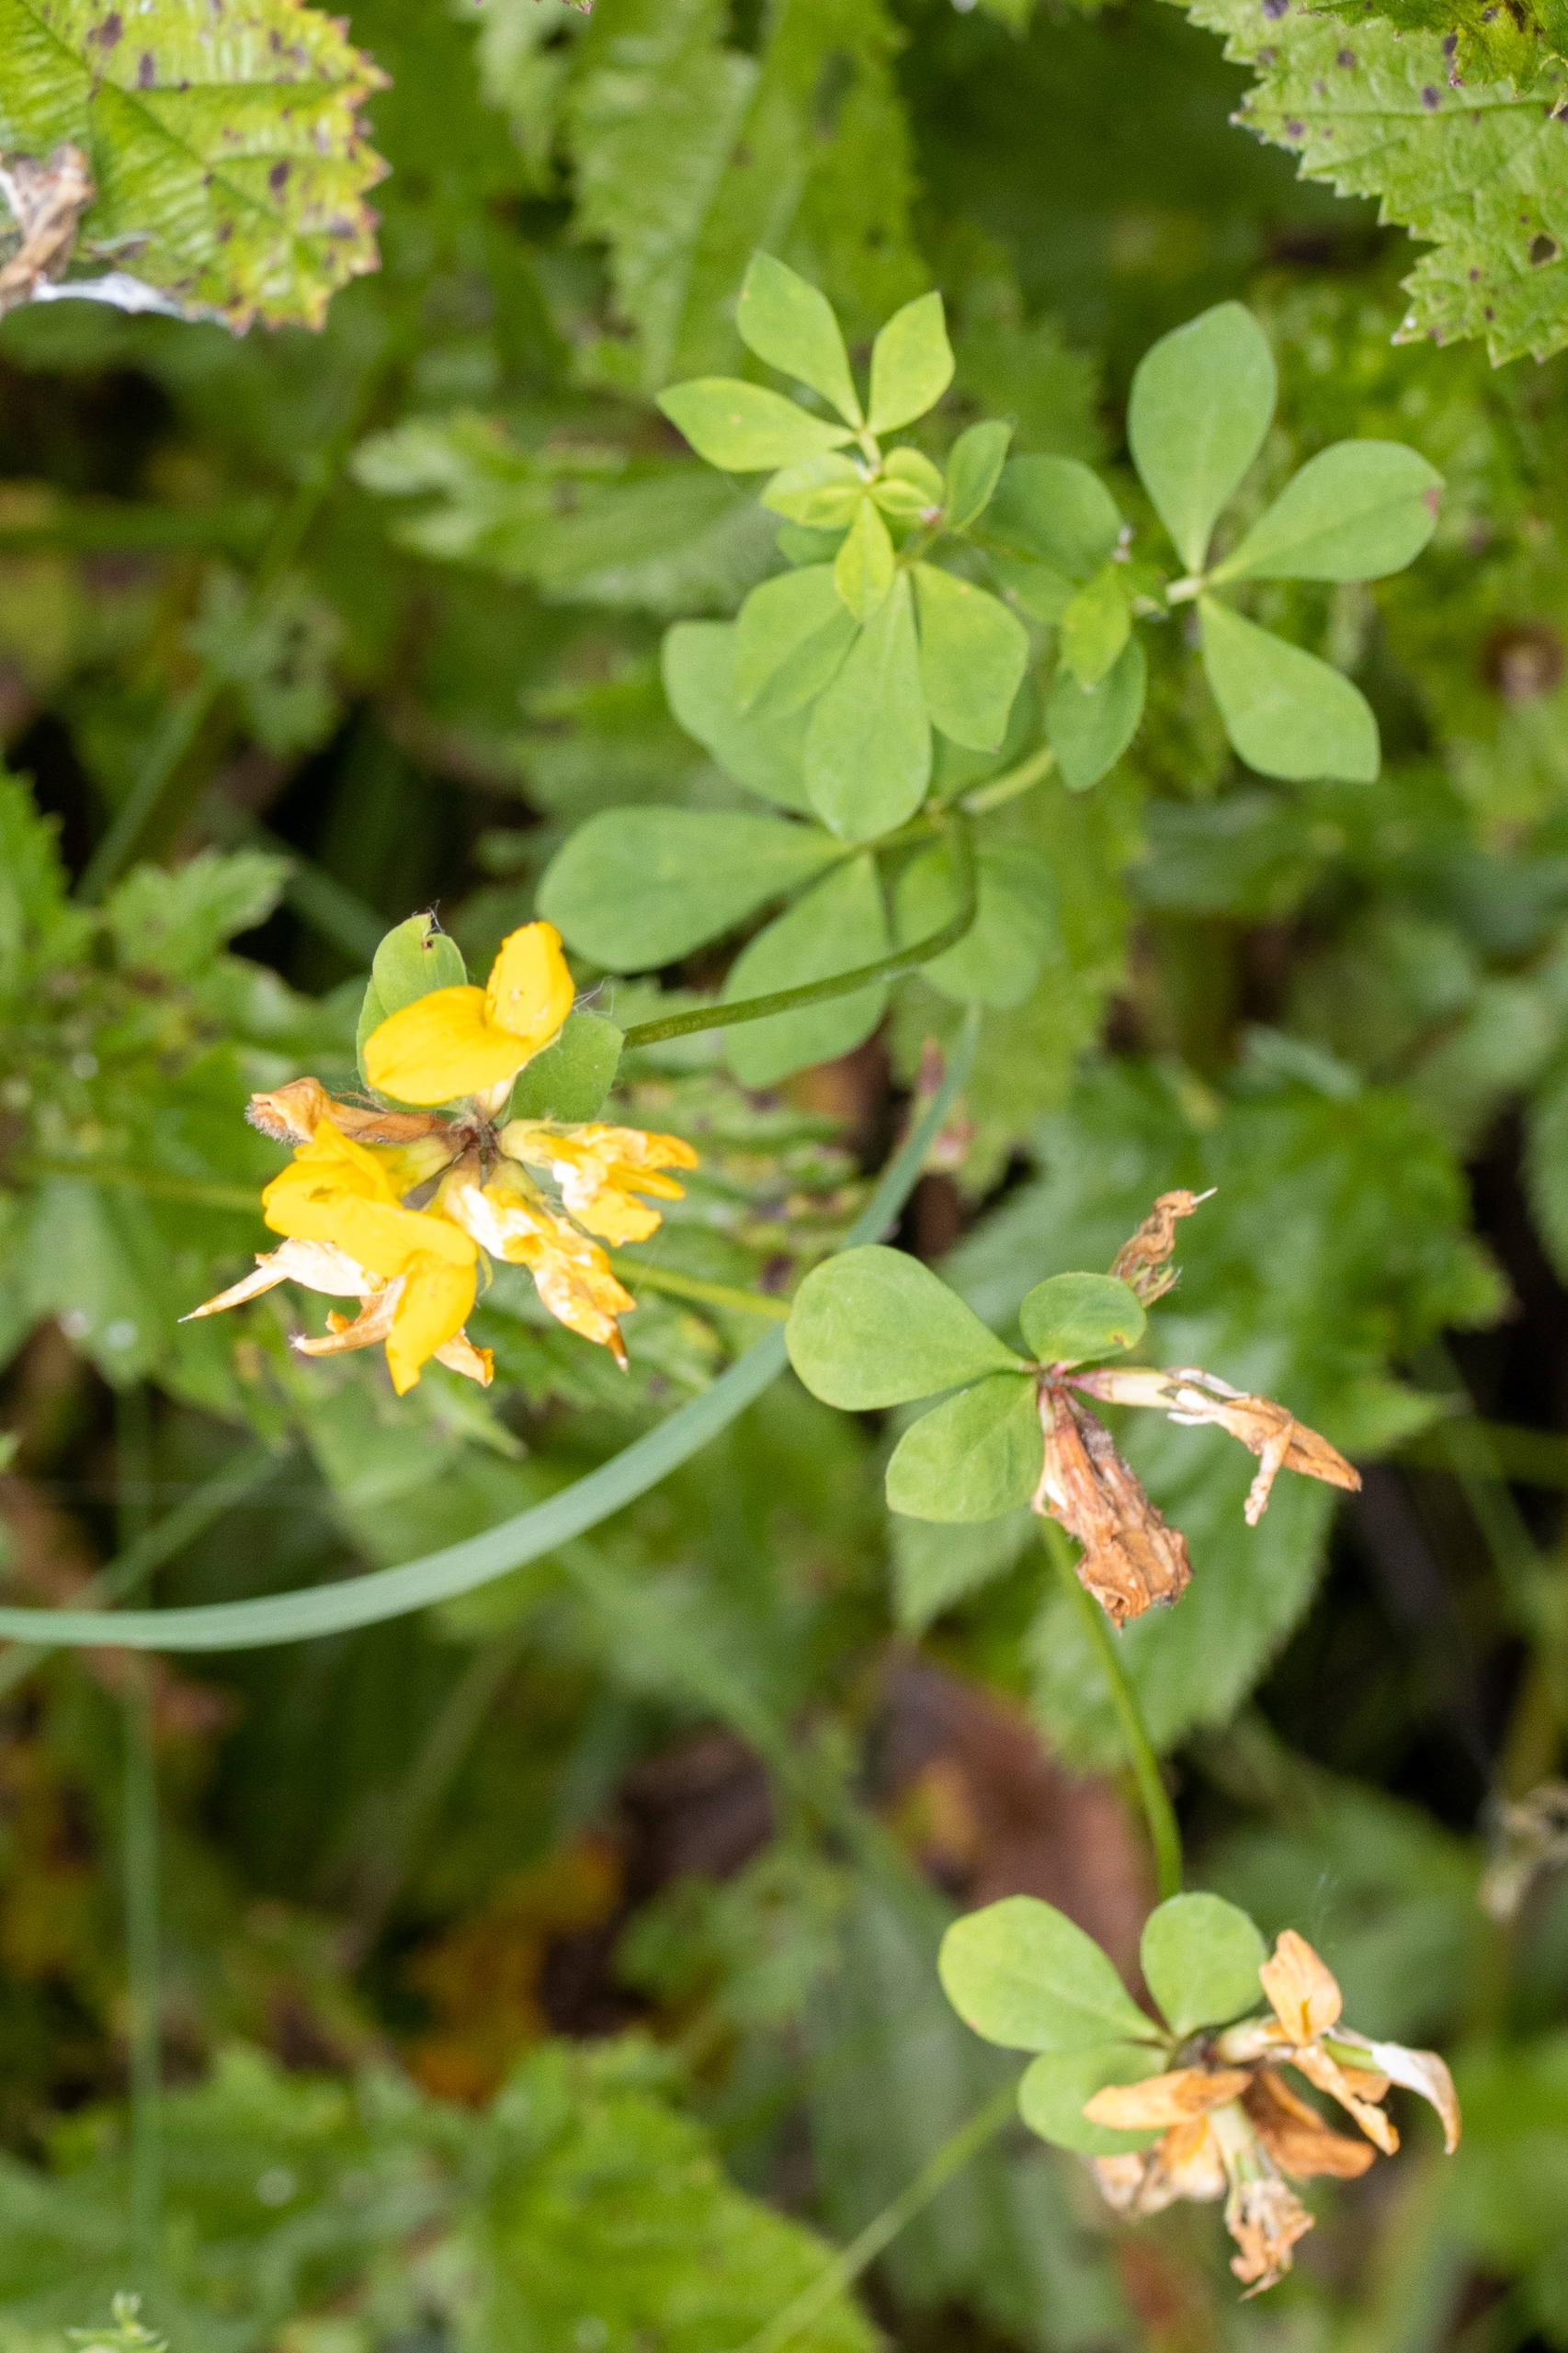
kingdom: Plantae
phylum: Tracheophyta
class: Magnoliopsida
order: Fabales
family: Fabaceae
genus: Lotus
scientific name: Lotus pedunculatus
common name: Sump-kællingetand
